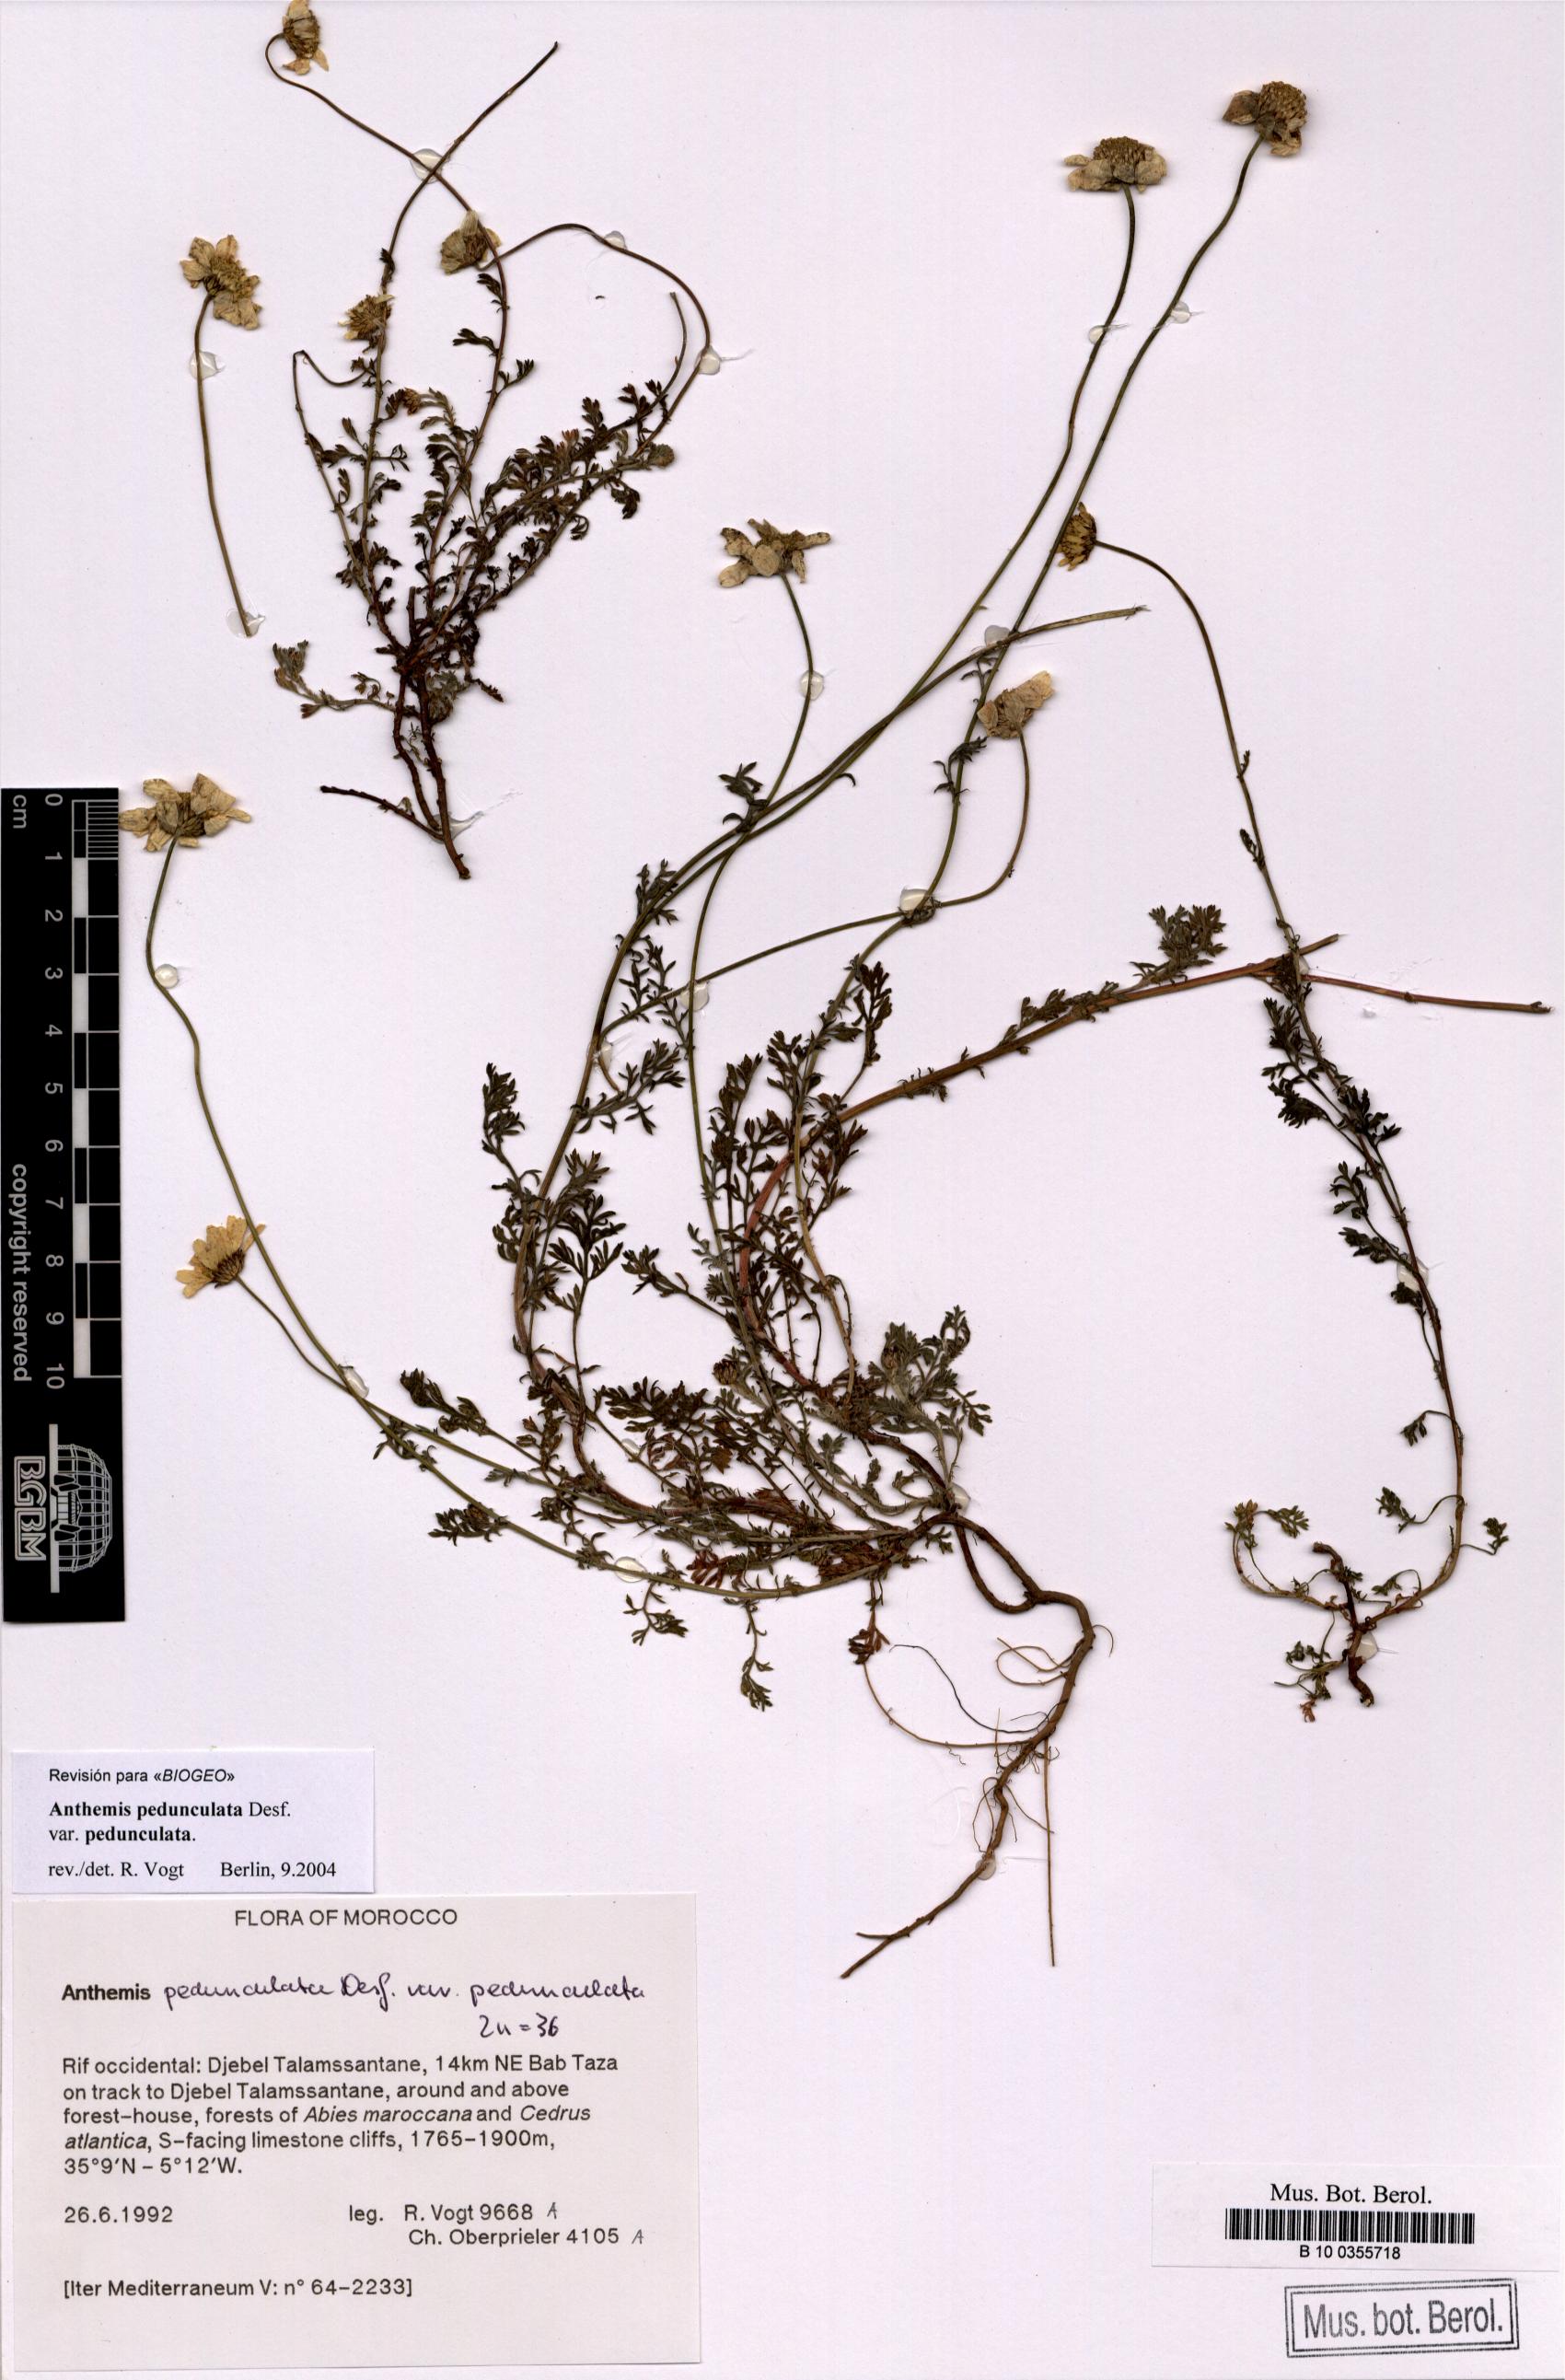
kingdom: Plantae
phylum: Tracheophyta
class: Magnoliopsida
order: Asterales
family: Asteraceae
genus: Anthemis
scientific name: Anthemis pedunculata
